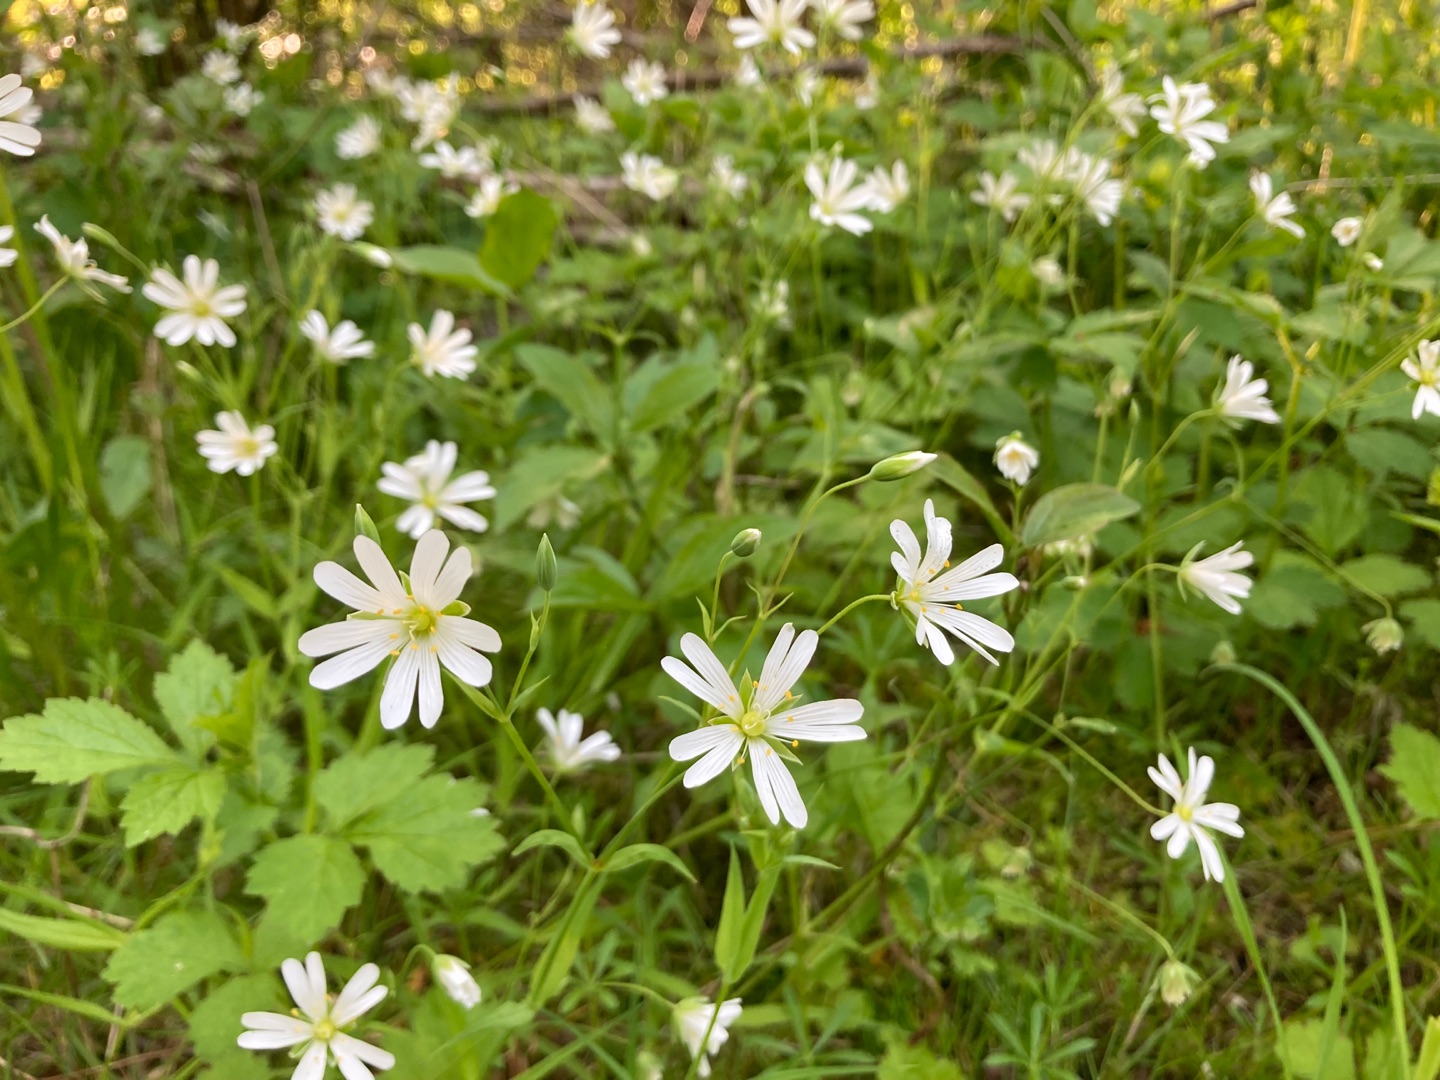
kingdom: Plantae
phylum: Tracheophyta
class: Magnoliopsida
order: Caryophyllales
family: Caryophyllaceae
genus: Rabelera
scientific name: Rabelera holostea
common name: Stor fladstjerne
